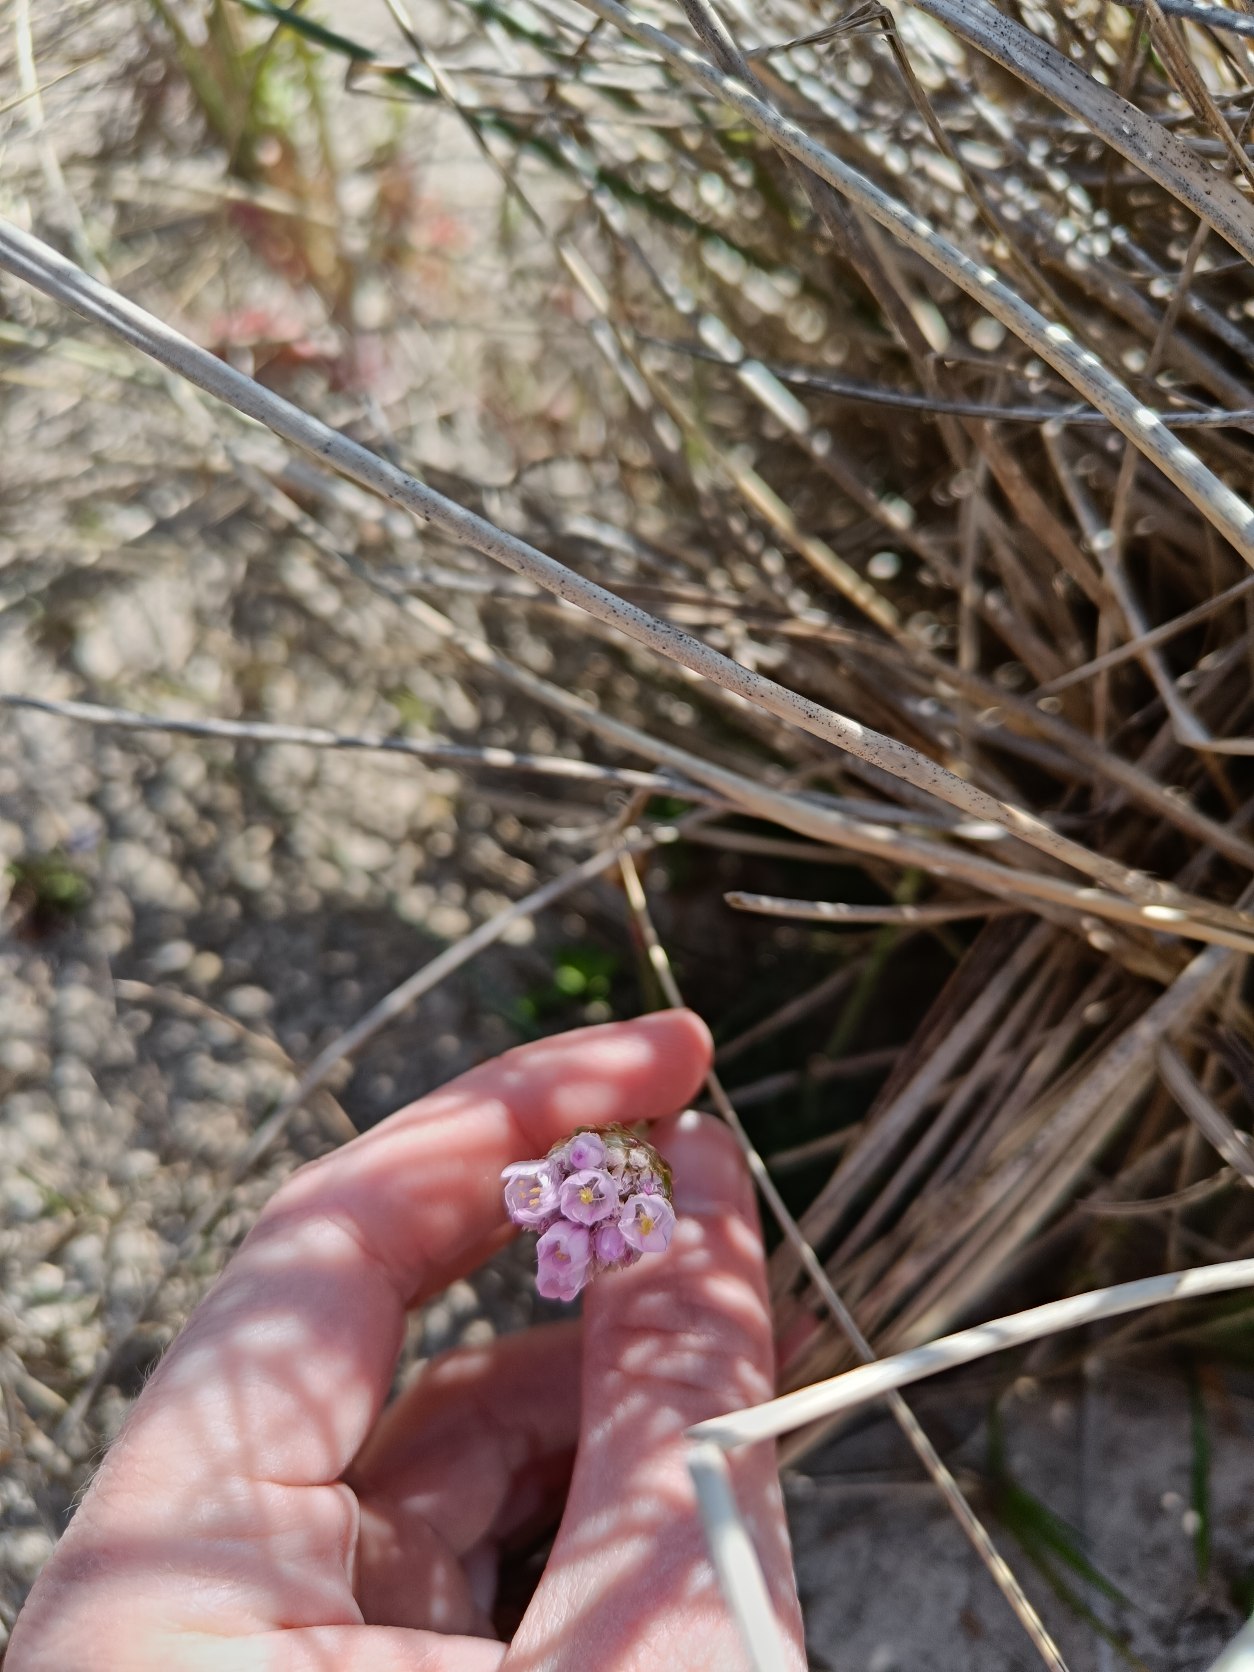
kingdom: Plantae
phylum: Tracheophyta
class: Magnoliopsida
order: Caryophyllales
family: Plumbaginaceae
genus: Armeria
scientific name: Armeria maritima
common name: Engelskgræs
